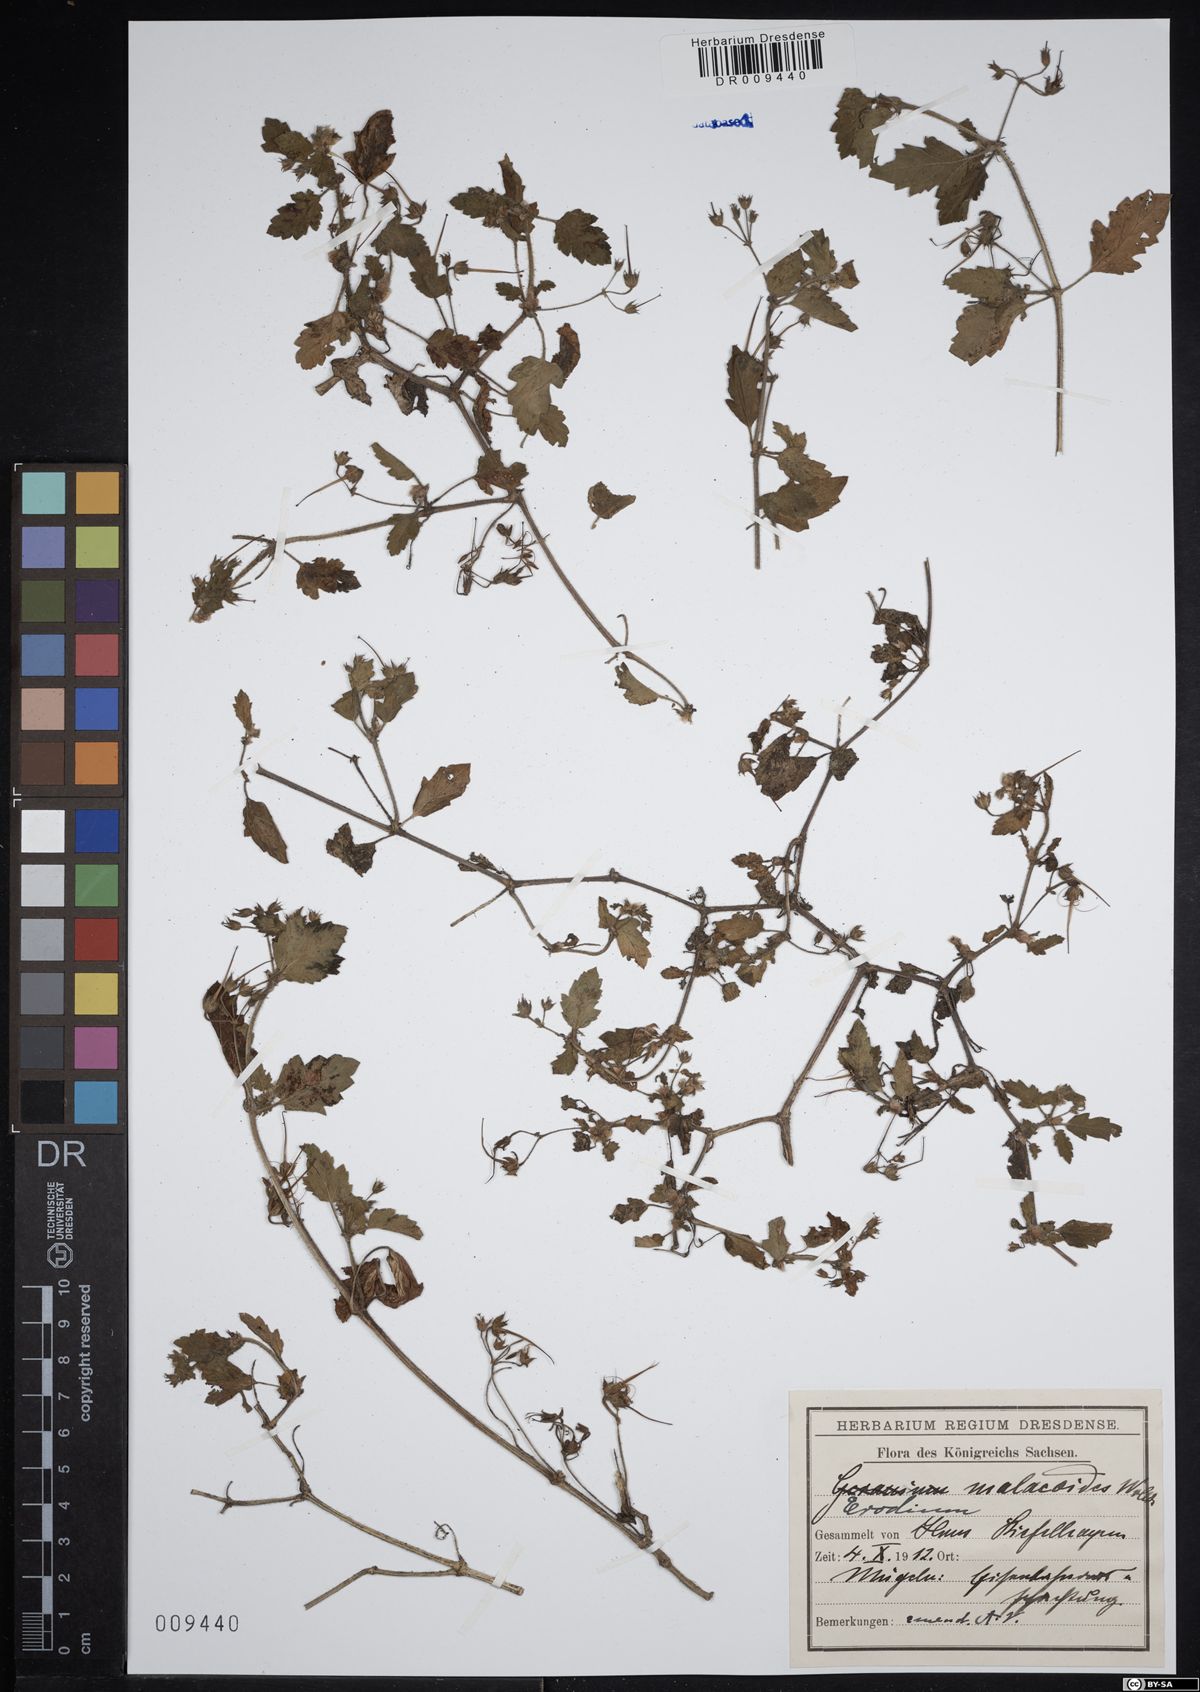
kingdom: Plantae
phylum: Tracheophyta
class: Magnoliopsida
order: Geraniales
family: Geraniaceae
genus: Erodium
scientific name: Erodium malacoides
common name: Soft stork's-bill
